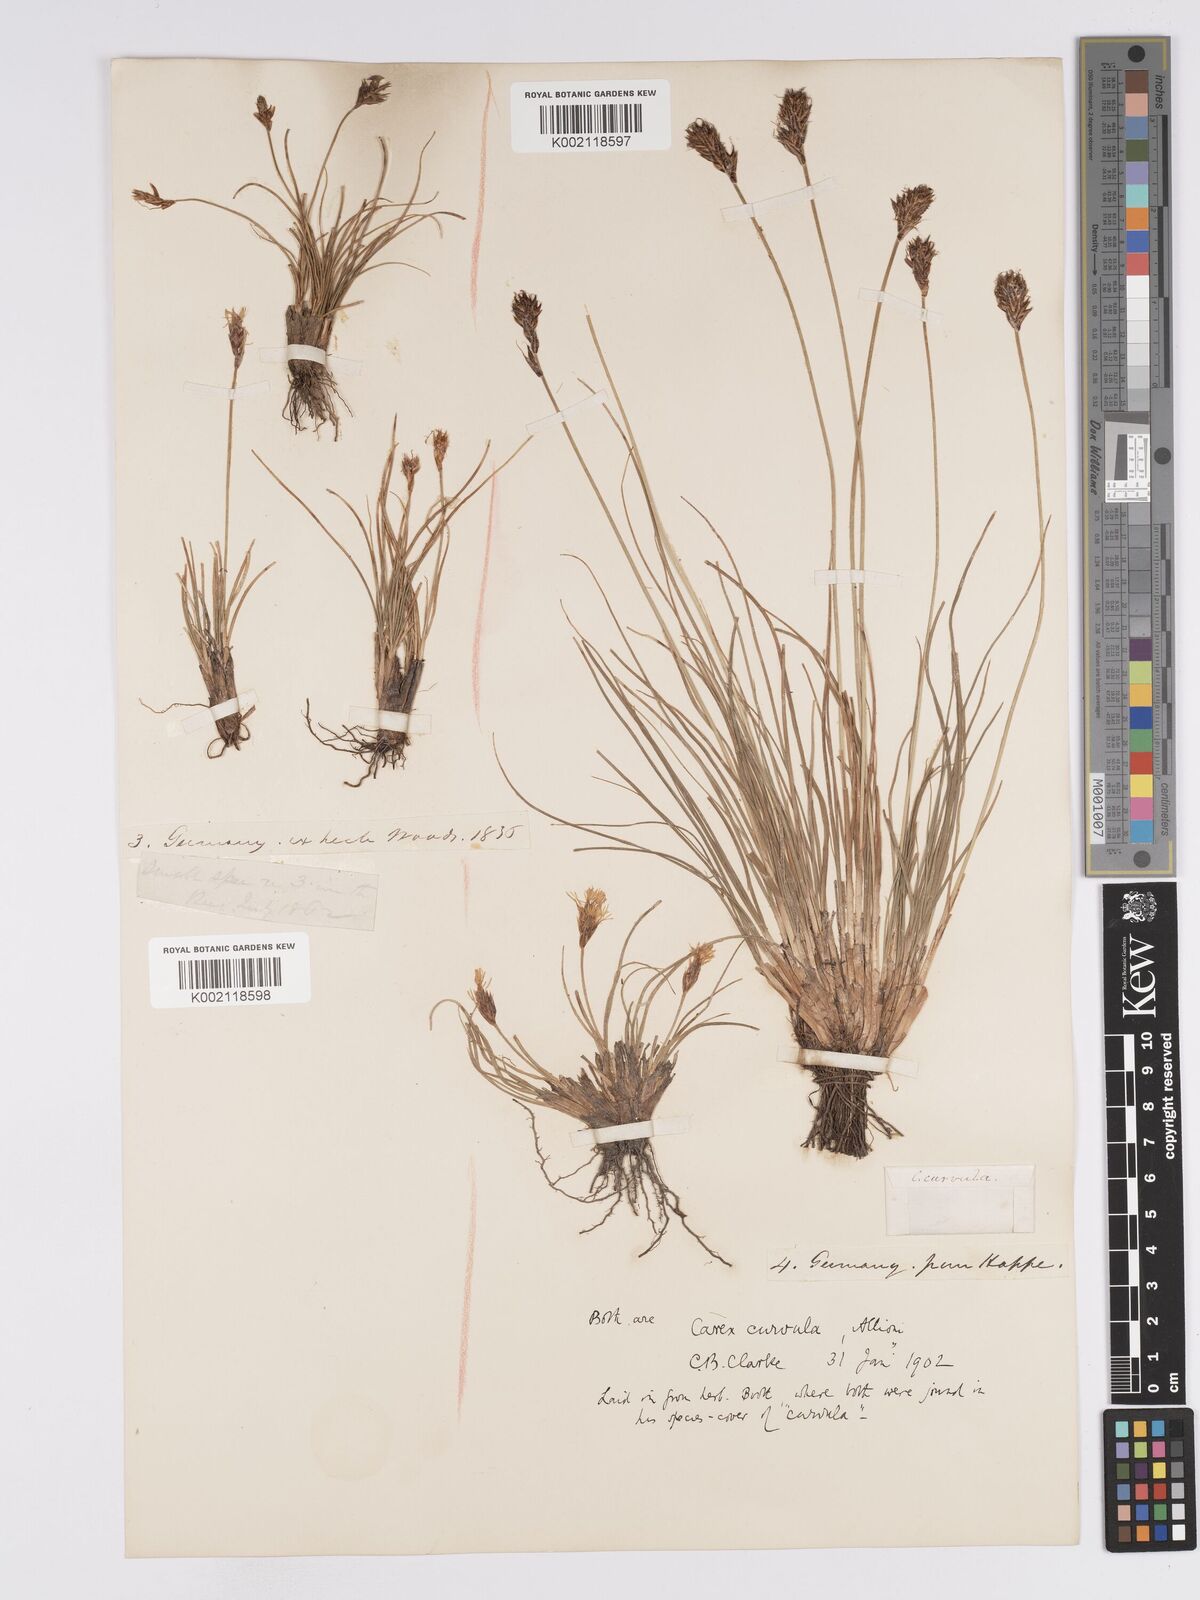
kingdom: Plantae
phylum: Tracheophyta
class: Liliopsida
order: Poales
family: Cyperaceae
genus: Carex
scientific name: Carex curvula
